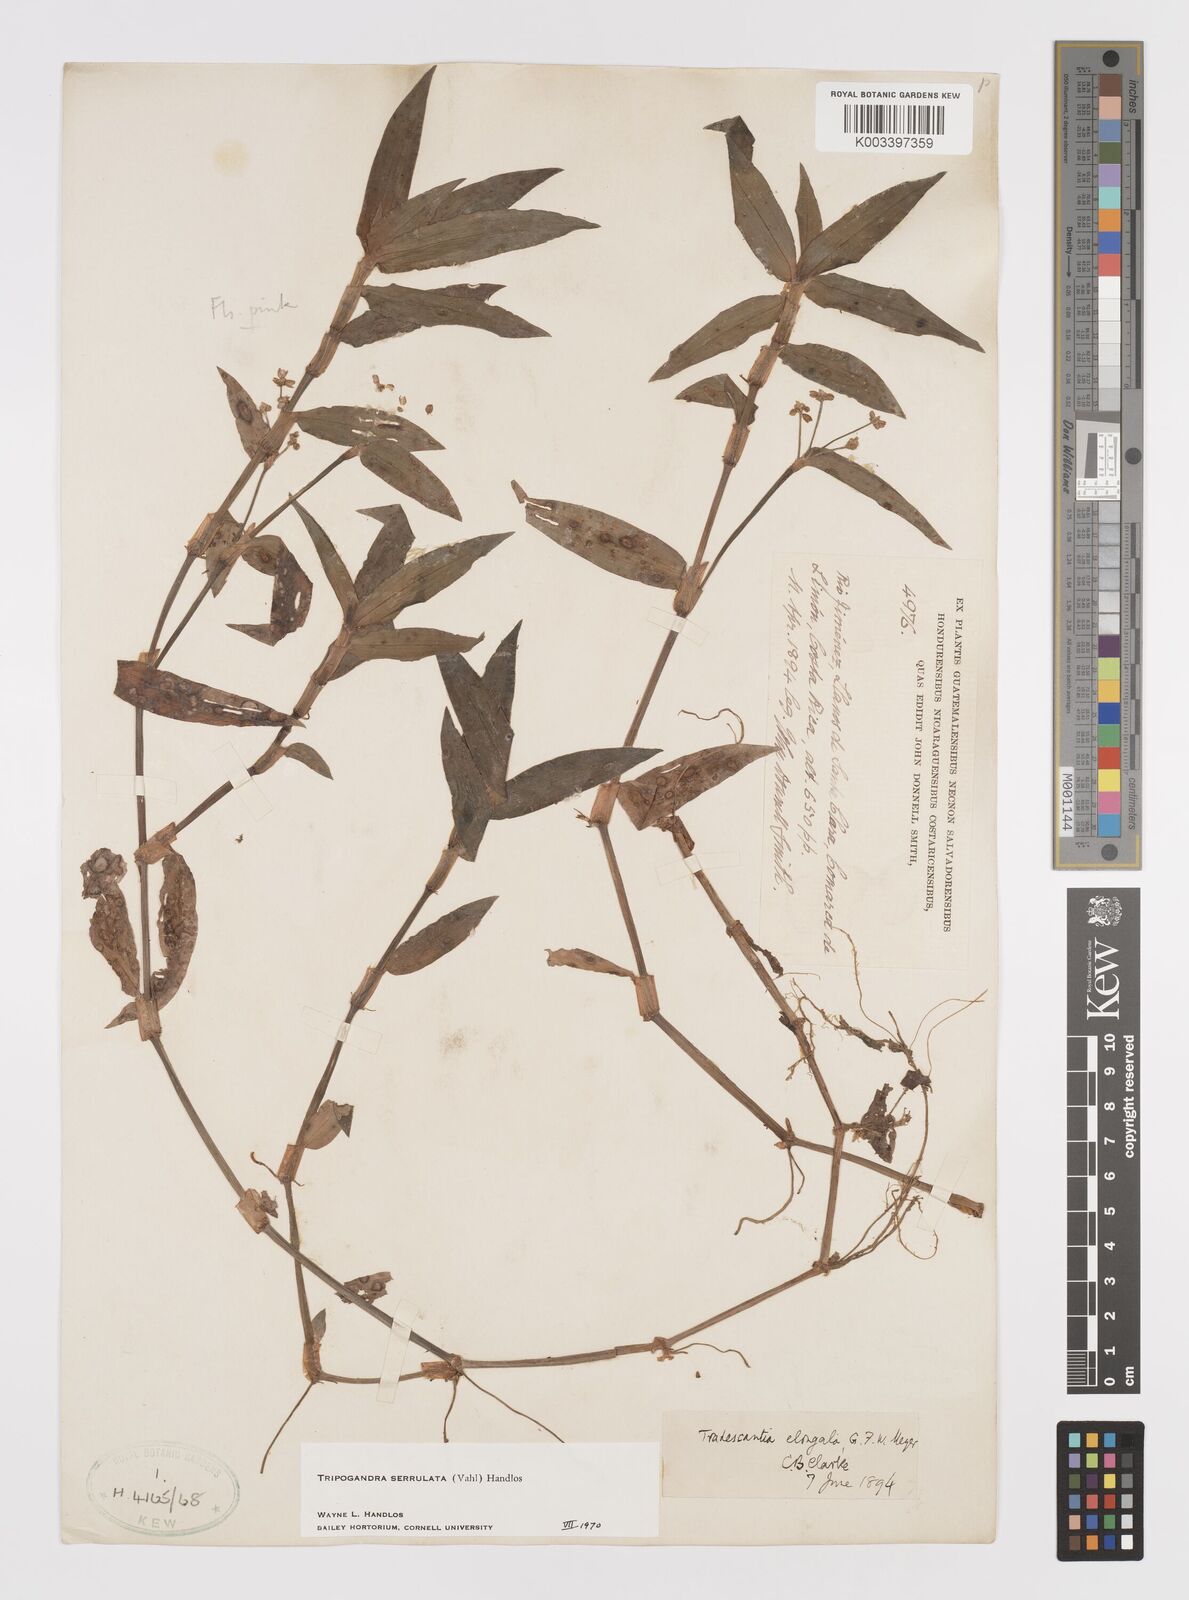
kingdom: Plantae
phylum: Tracheophyta
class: Liliopsida
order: Commelinales
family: Commelinaceae
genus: Callisia
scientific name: Callisia serrulata
